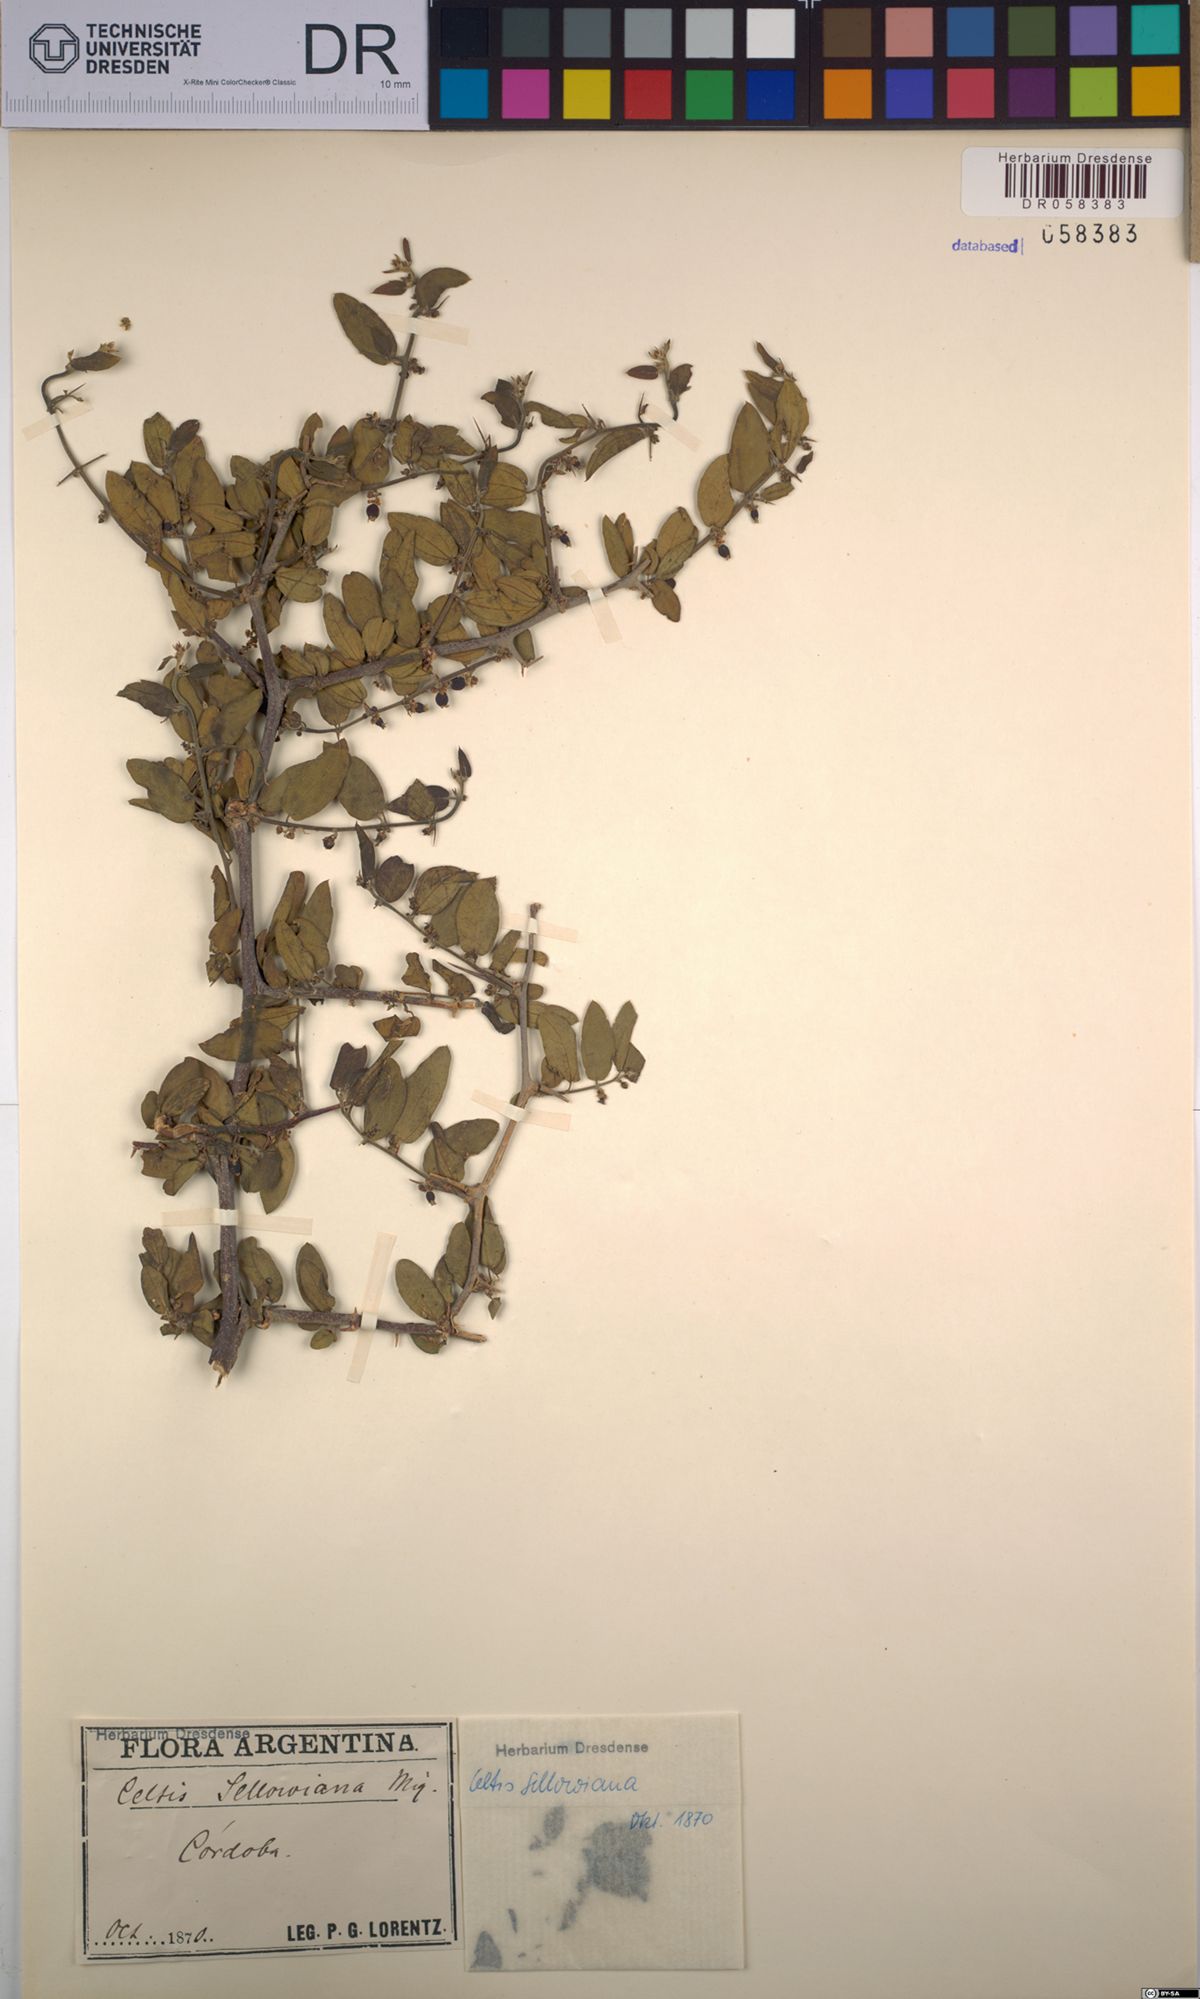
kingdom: Plantae
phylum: Tracheophyta
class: Magnoliopsida
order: Rosales
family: Cannabaceae
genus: Celtis
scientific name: Celtis tala
